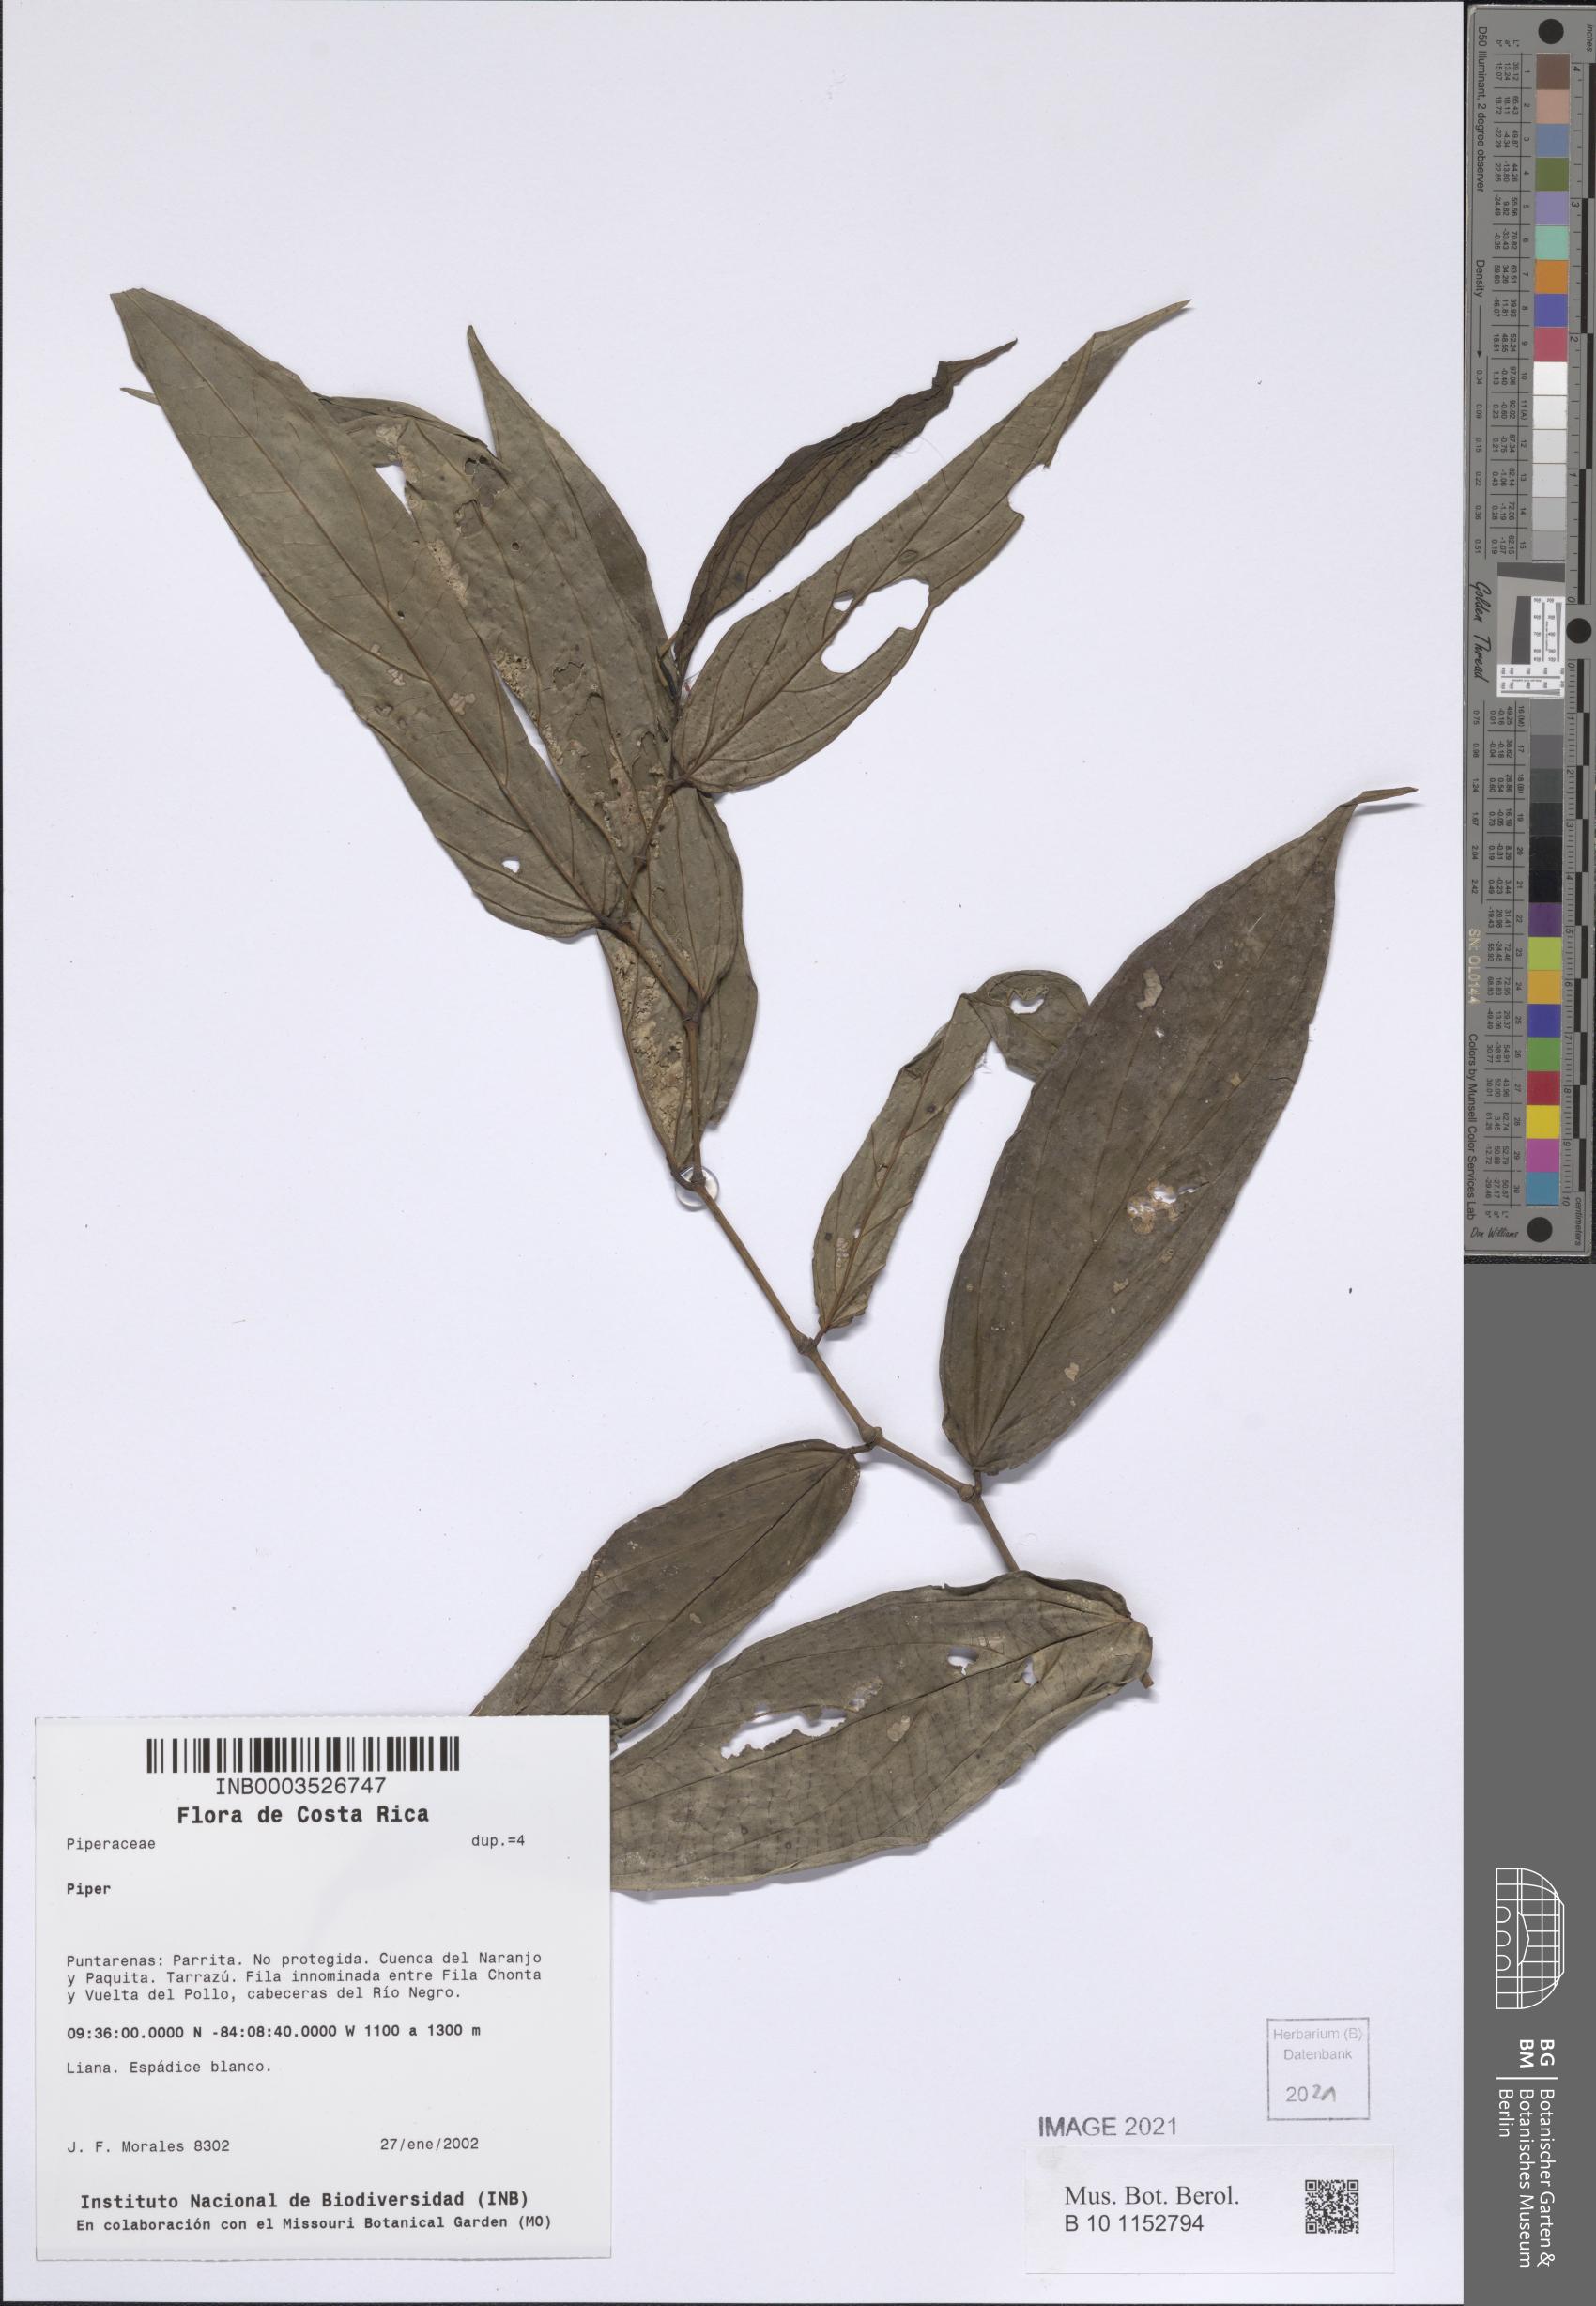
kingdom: Plantae
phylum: Tracheophyta
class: Magnoliopsida
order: Piperales
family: Piperaceae
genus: Piper
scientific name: Piper
